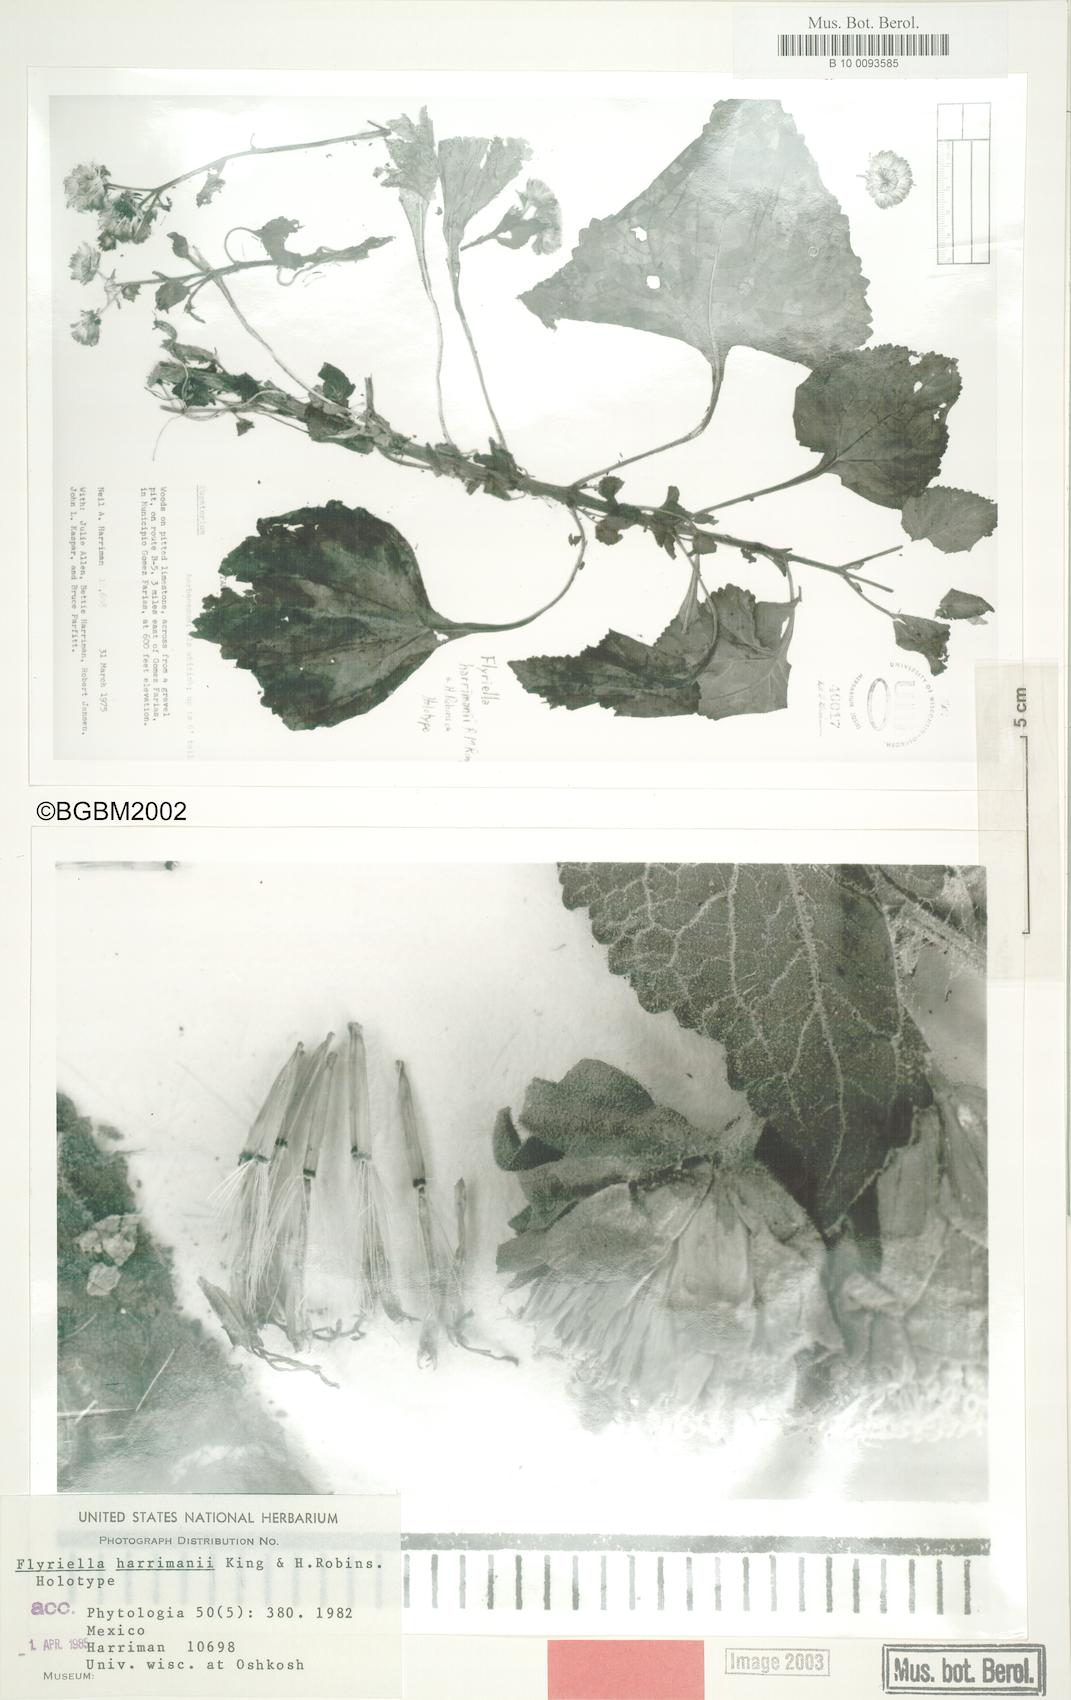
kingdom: Plantae
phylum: Tracheophyta
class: Magnoliopsida
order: Asterales
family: Asteraceae
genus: Flyriella
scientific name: Flyriella harrimanii
